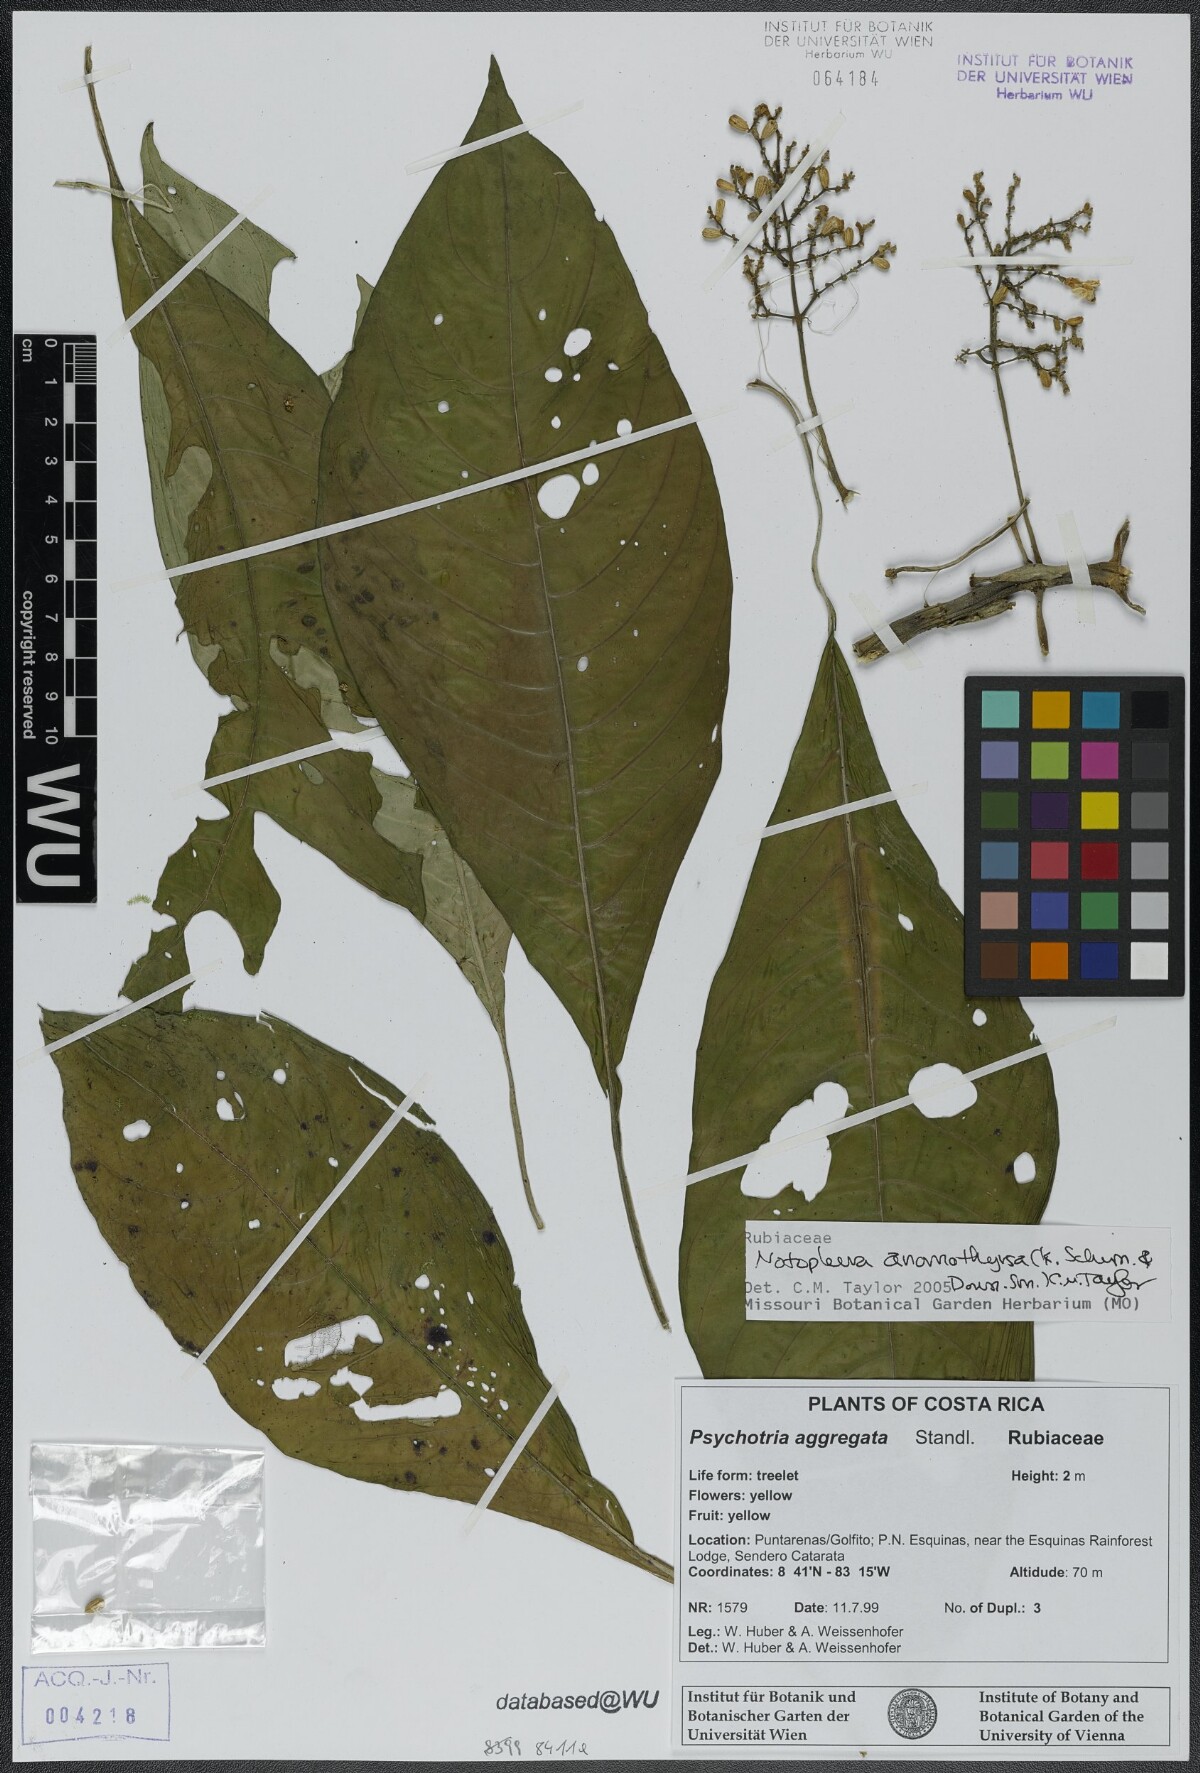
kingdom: Plantae
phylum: Tracheophyta
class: Magnoliopsida
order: Gentianales
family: Rubiaceae
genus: Notopleura
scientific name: Notopleura anomothyrsa
